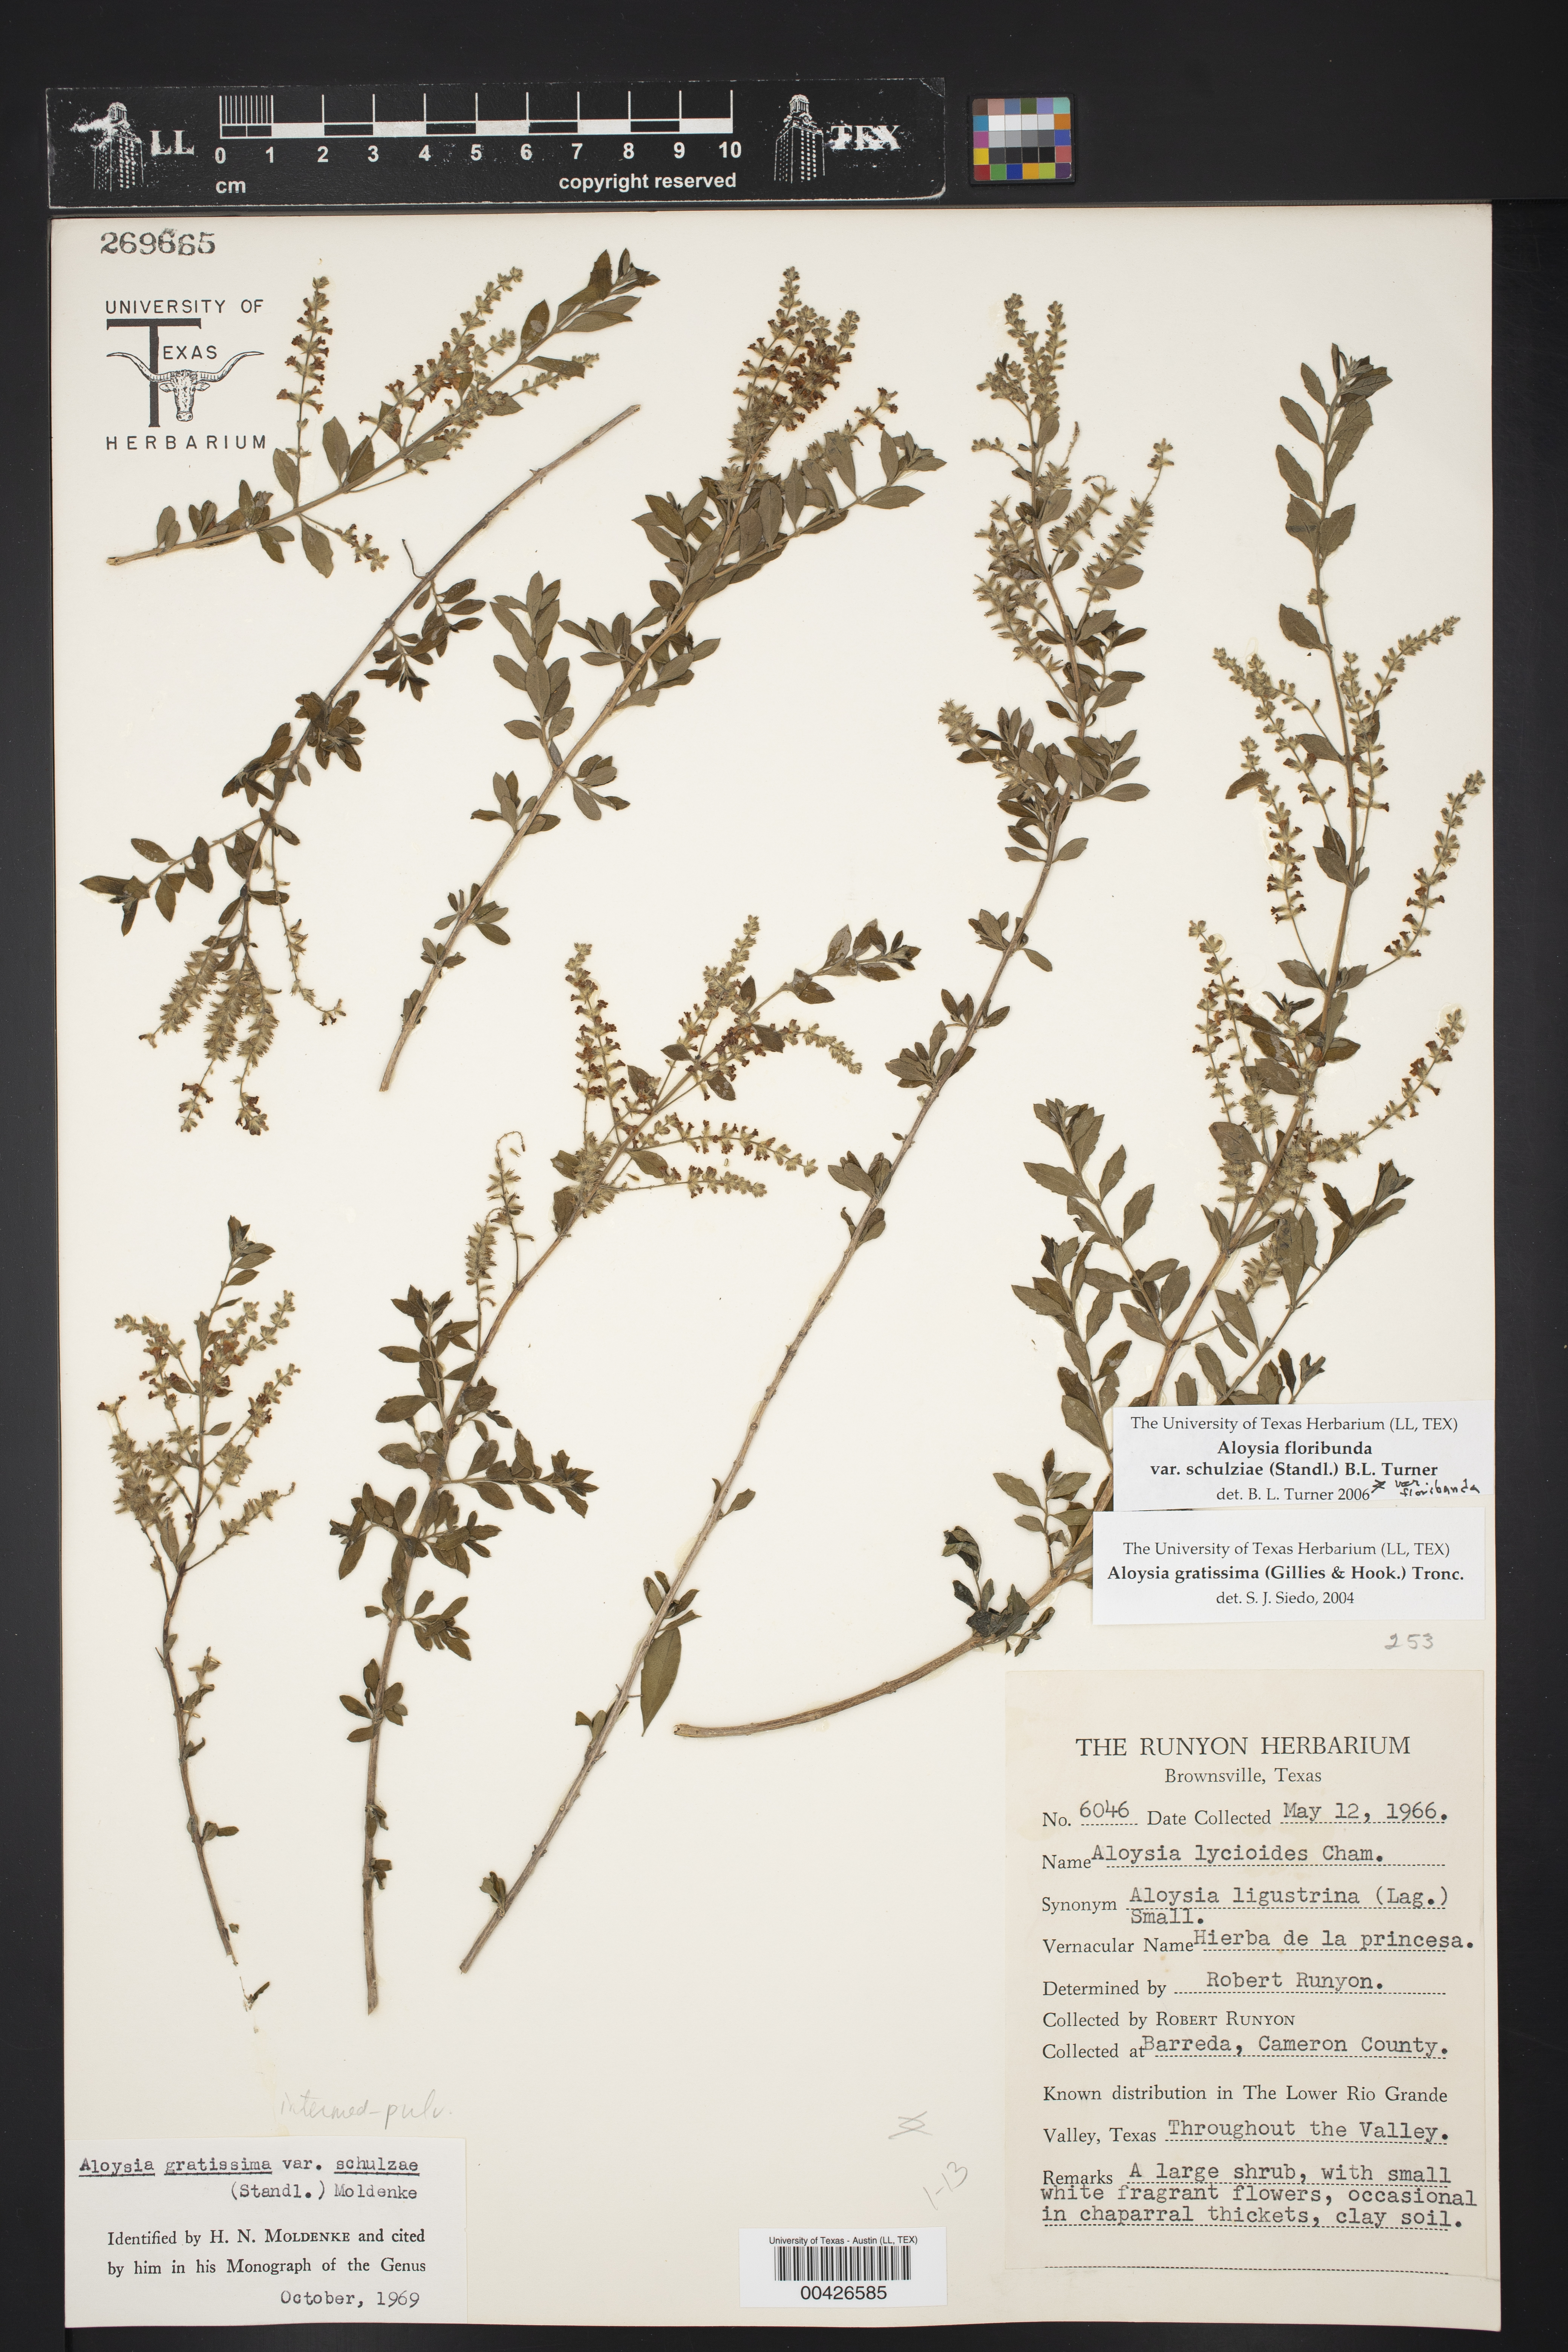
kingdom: Plantae
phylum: Tracheophyta
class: Magnoliopsida
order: Lamiales
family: Verbenaceae
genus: Aloysia
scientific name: Aloysia gratissima
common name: Common bee-brush
